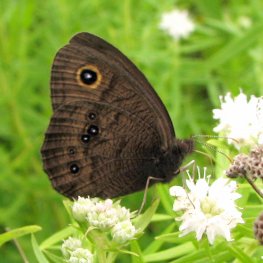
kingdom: Animalia
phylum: Arthropoda
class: Insecta
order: Lepidoptera
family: Nymphalidae
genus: Cercyonis
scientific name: Cercyonis pegala
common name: Common Wood-Nymph
